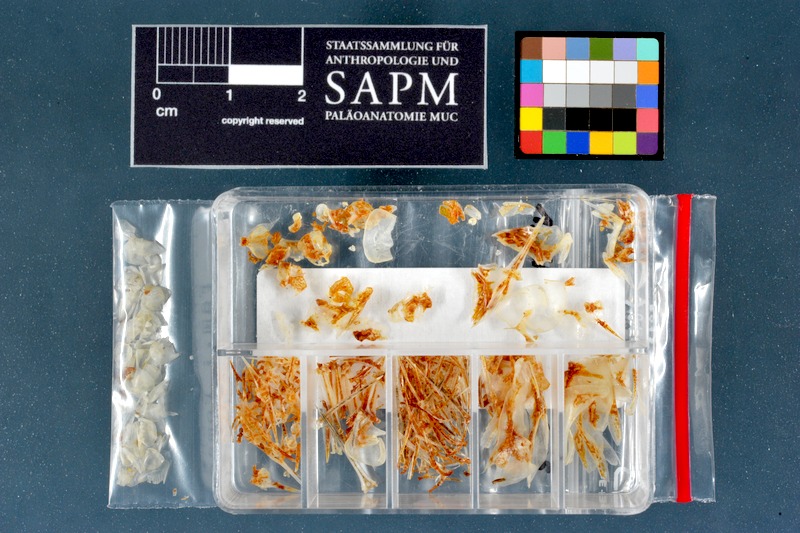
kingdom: Animalia
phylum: Chordata
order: Perciformes
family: Pomacentridae
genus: Chromis
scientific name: Chromis chromis
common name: Damselfish
